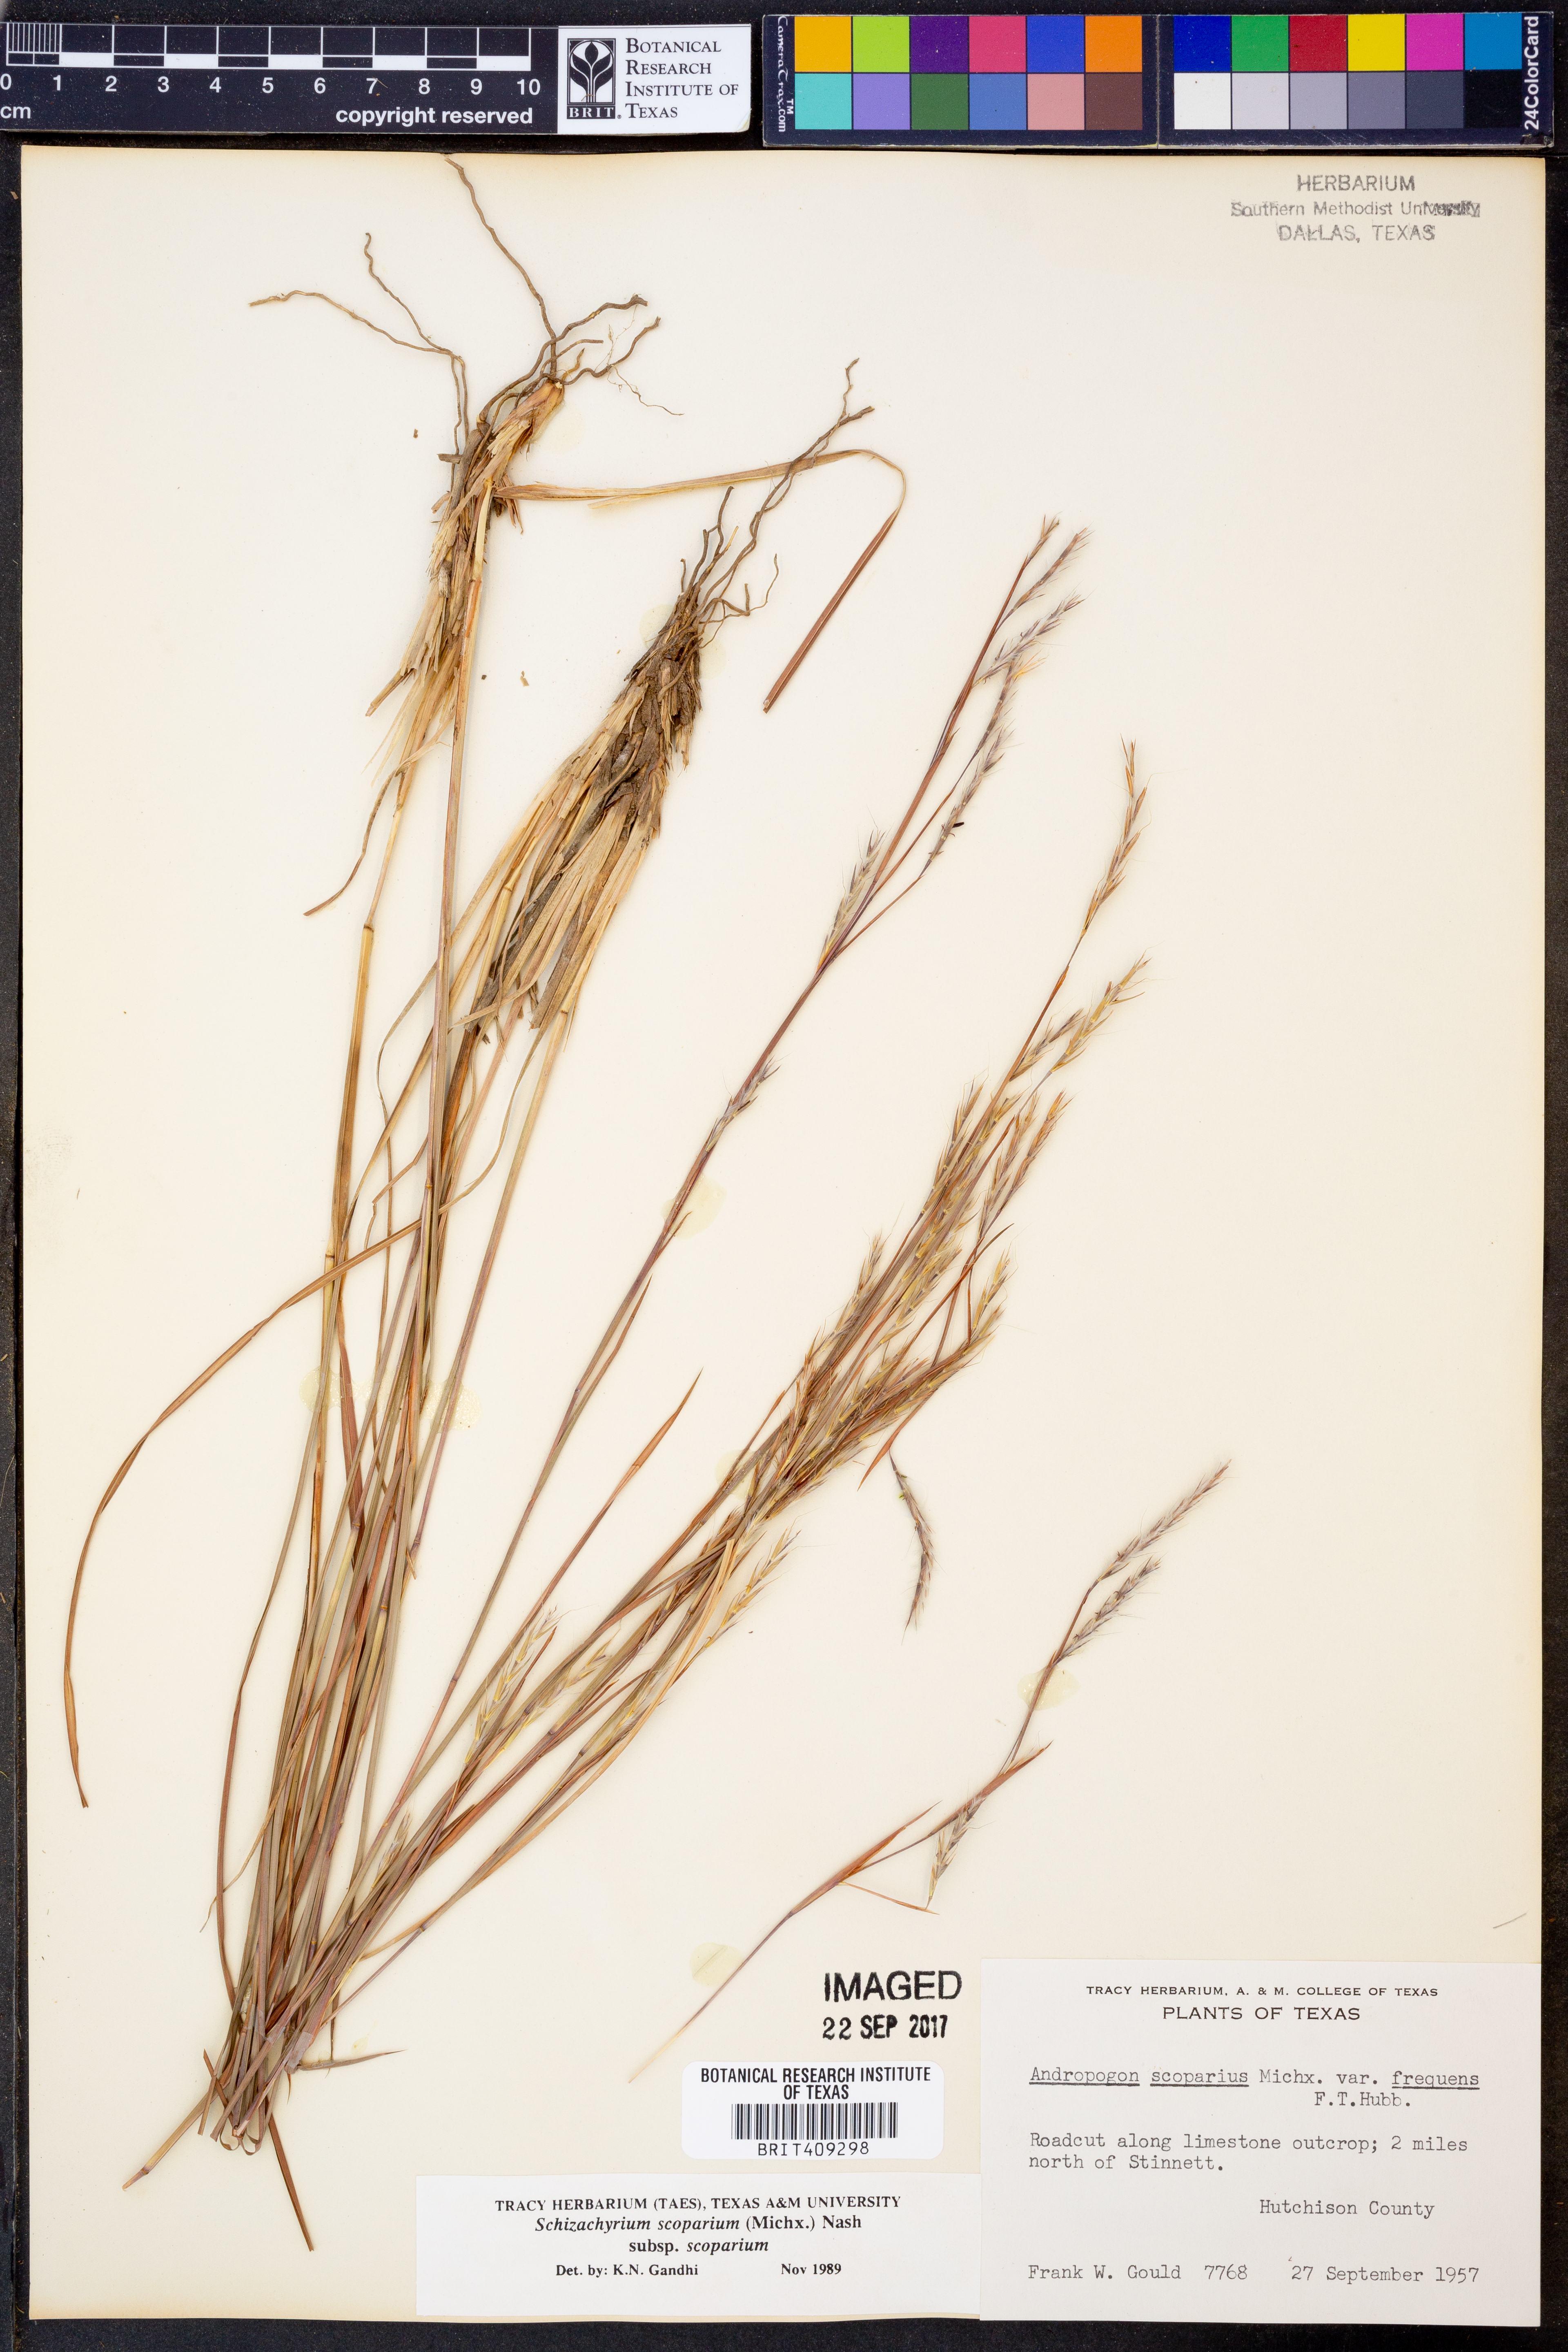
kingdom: Plantae
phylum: Tracheophyta
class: Liliopsida
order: Poales
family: Poaceae
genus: Schizachyrium
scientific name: Schizachyrium scoparium
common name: Little bluestem
